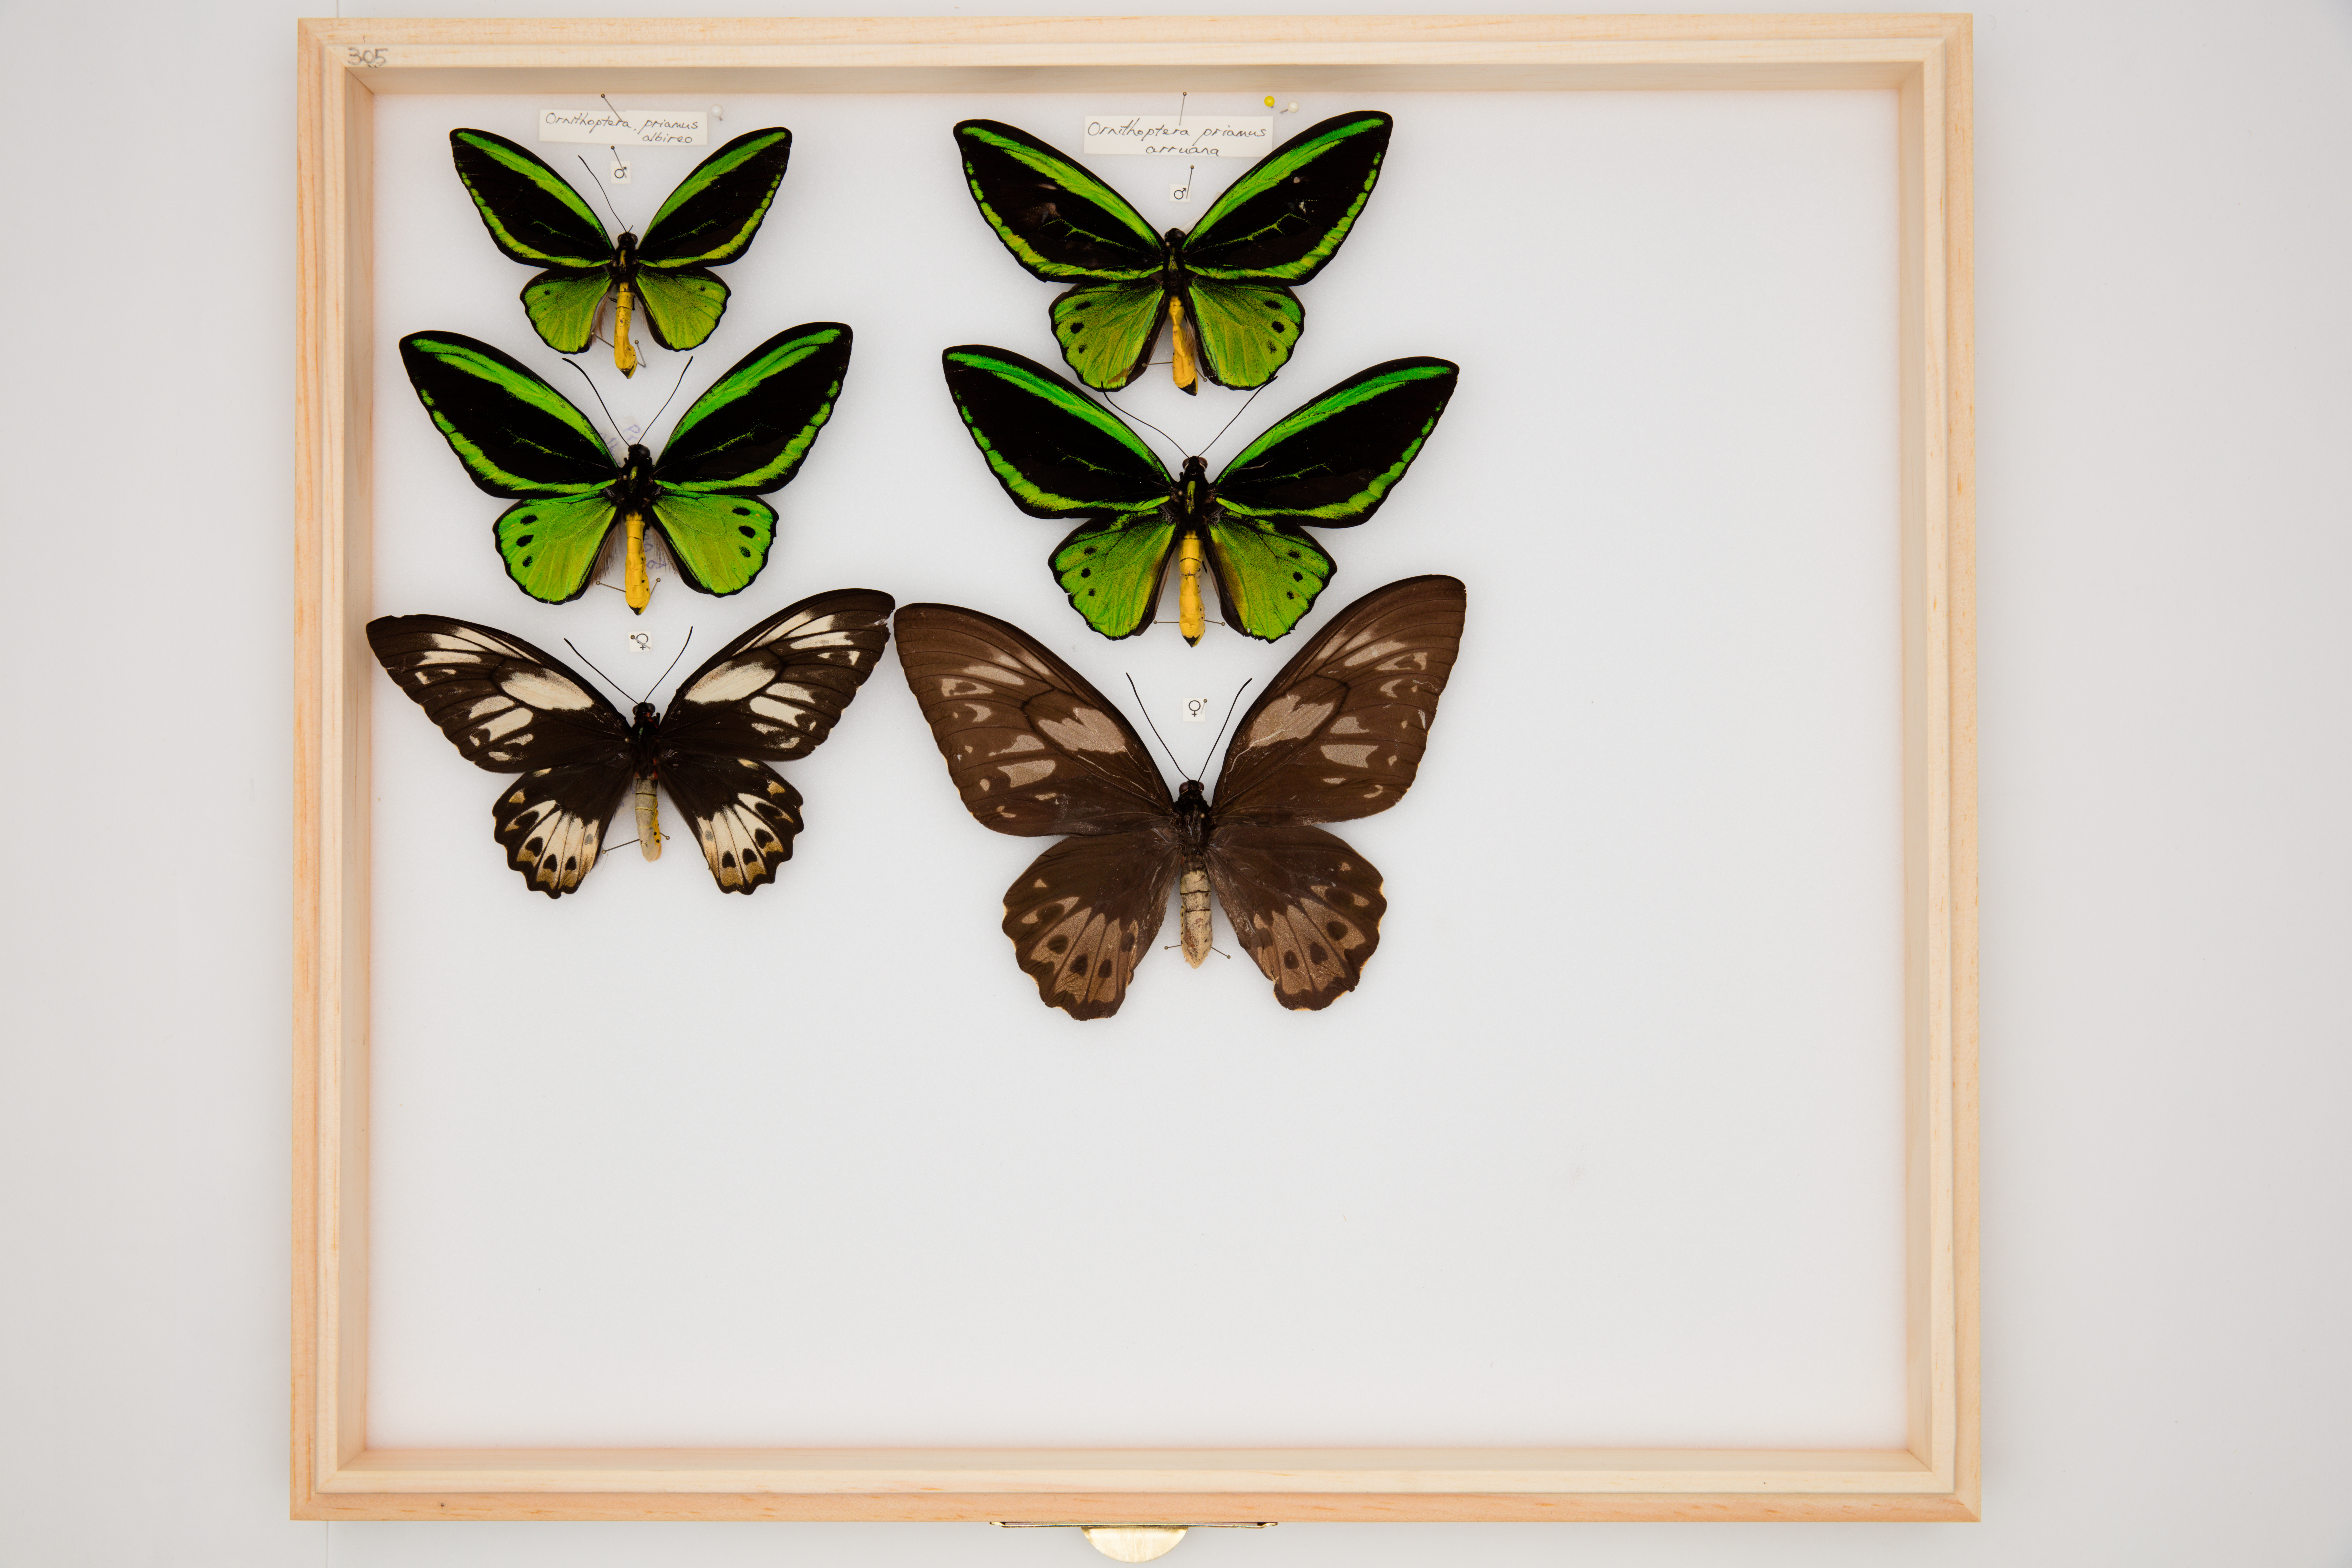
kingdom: Animalia
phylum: Arthropoda
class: Insecta
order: Lepidoptera
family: Papilionidae
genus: Ornithoptera
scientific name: Ornithoptera priamus
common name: Cape york birdwing
